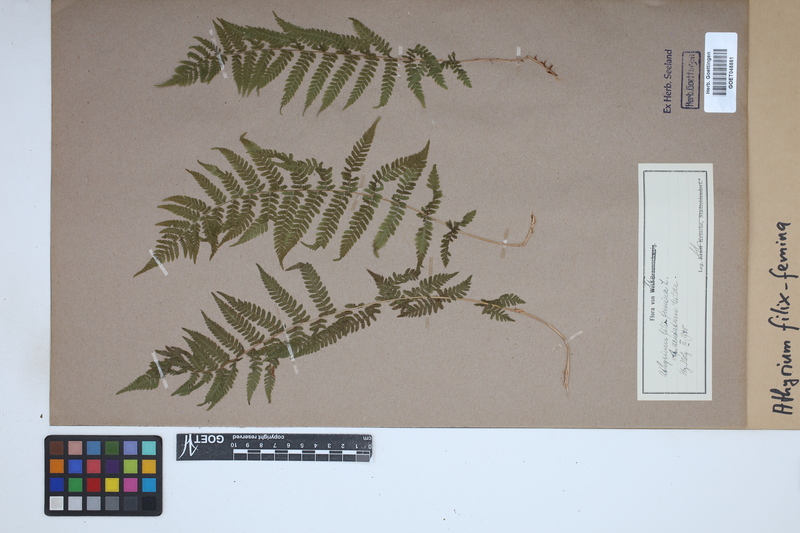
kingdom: Plantae
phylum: Tracheophyta
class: Polypodiopsida
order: Polypodiales
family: Athyriaceae
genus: Athyrium
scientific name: Athyrium filix-femina
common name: Lady fern
